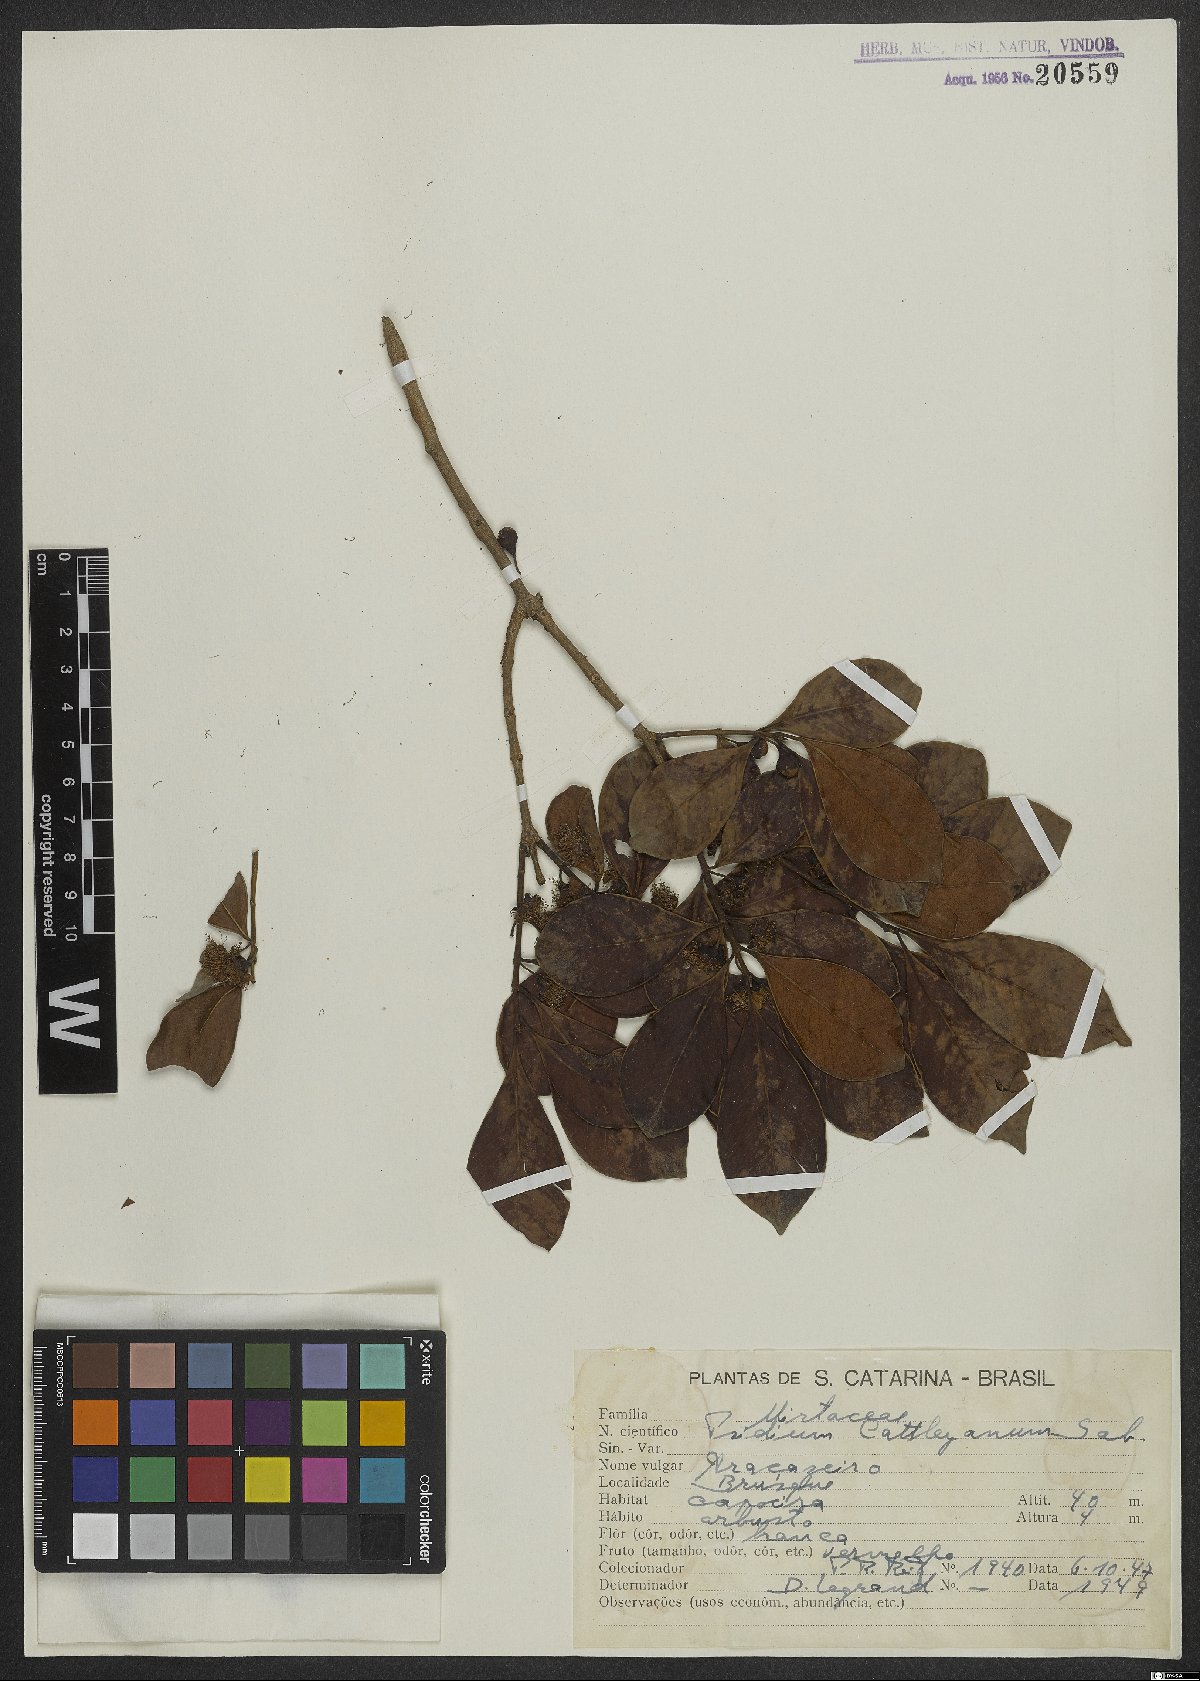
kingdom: Plantae
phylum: Tracheophyta
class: Magnoliopsida
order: Myrtales
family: Myrtaceae
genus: Psidium
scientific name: Psidium cattleianum
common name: Strawberry guava
